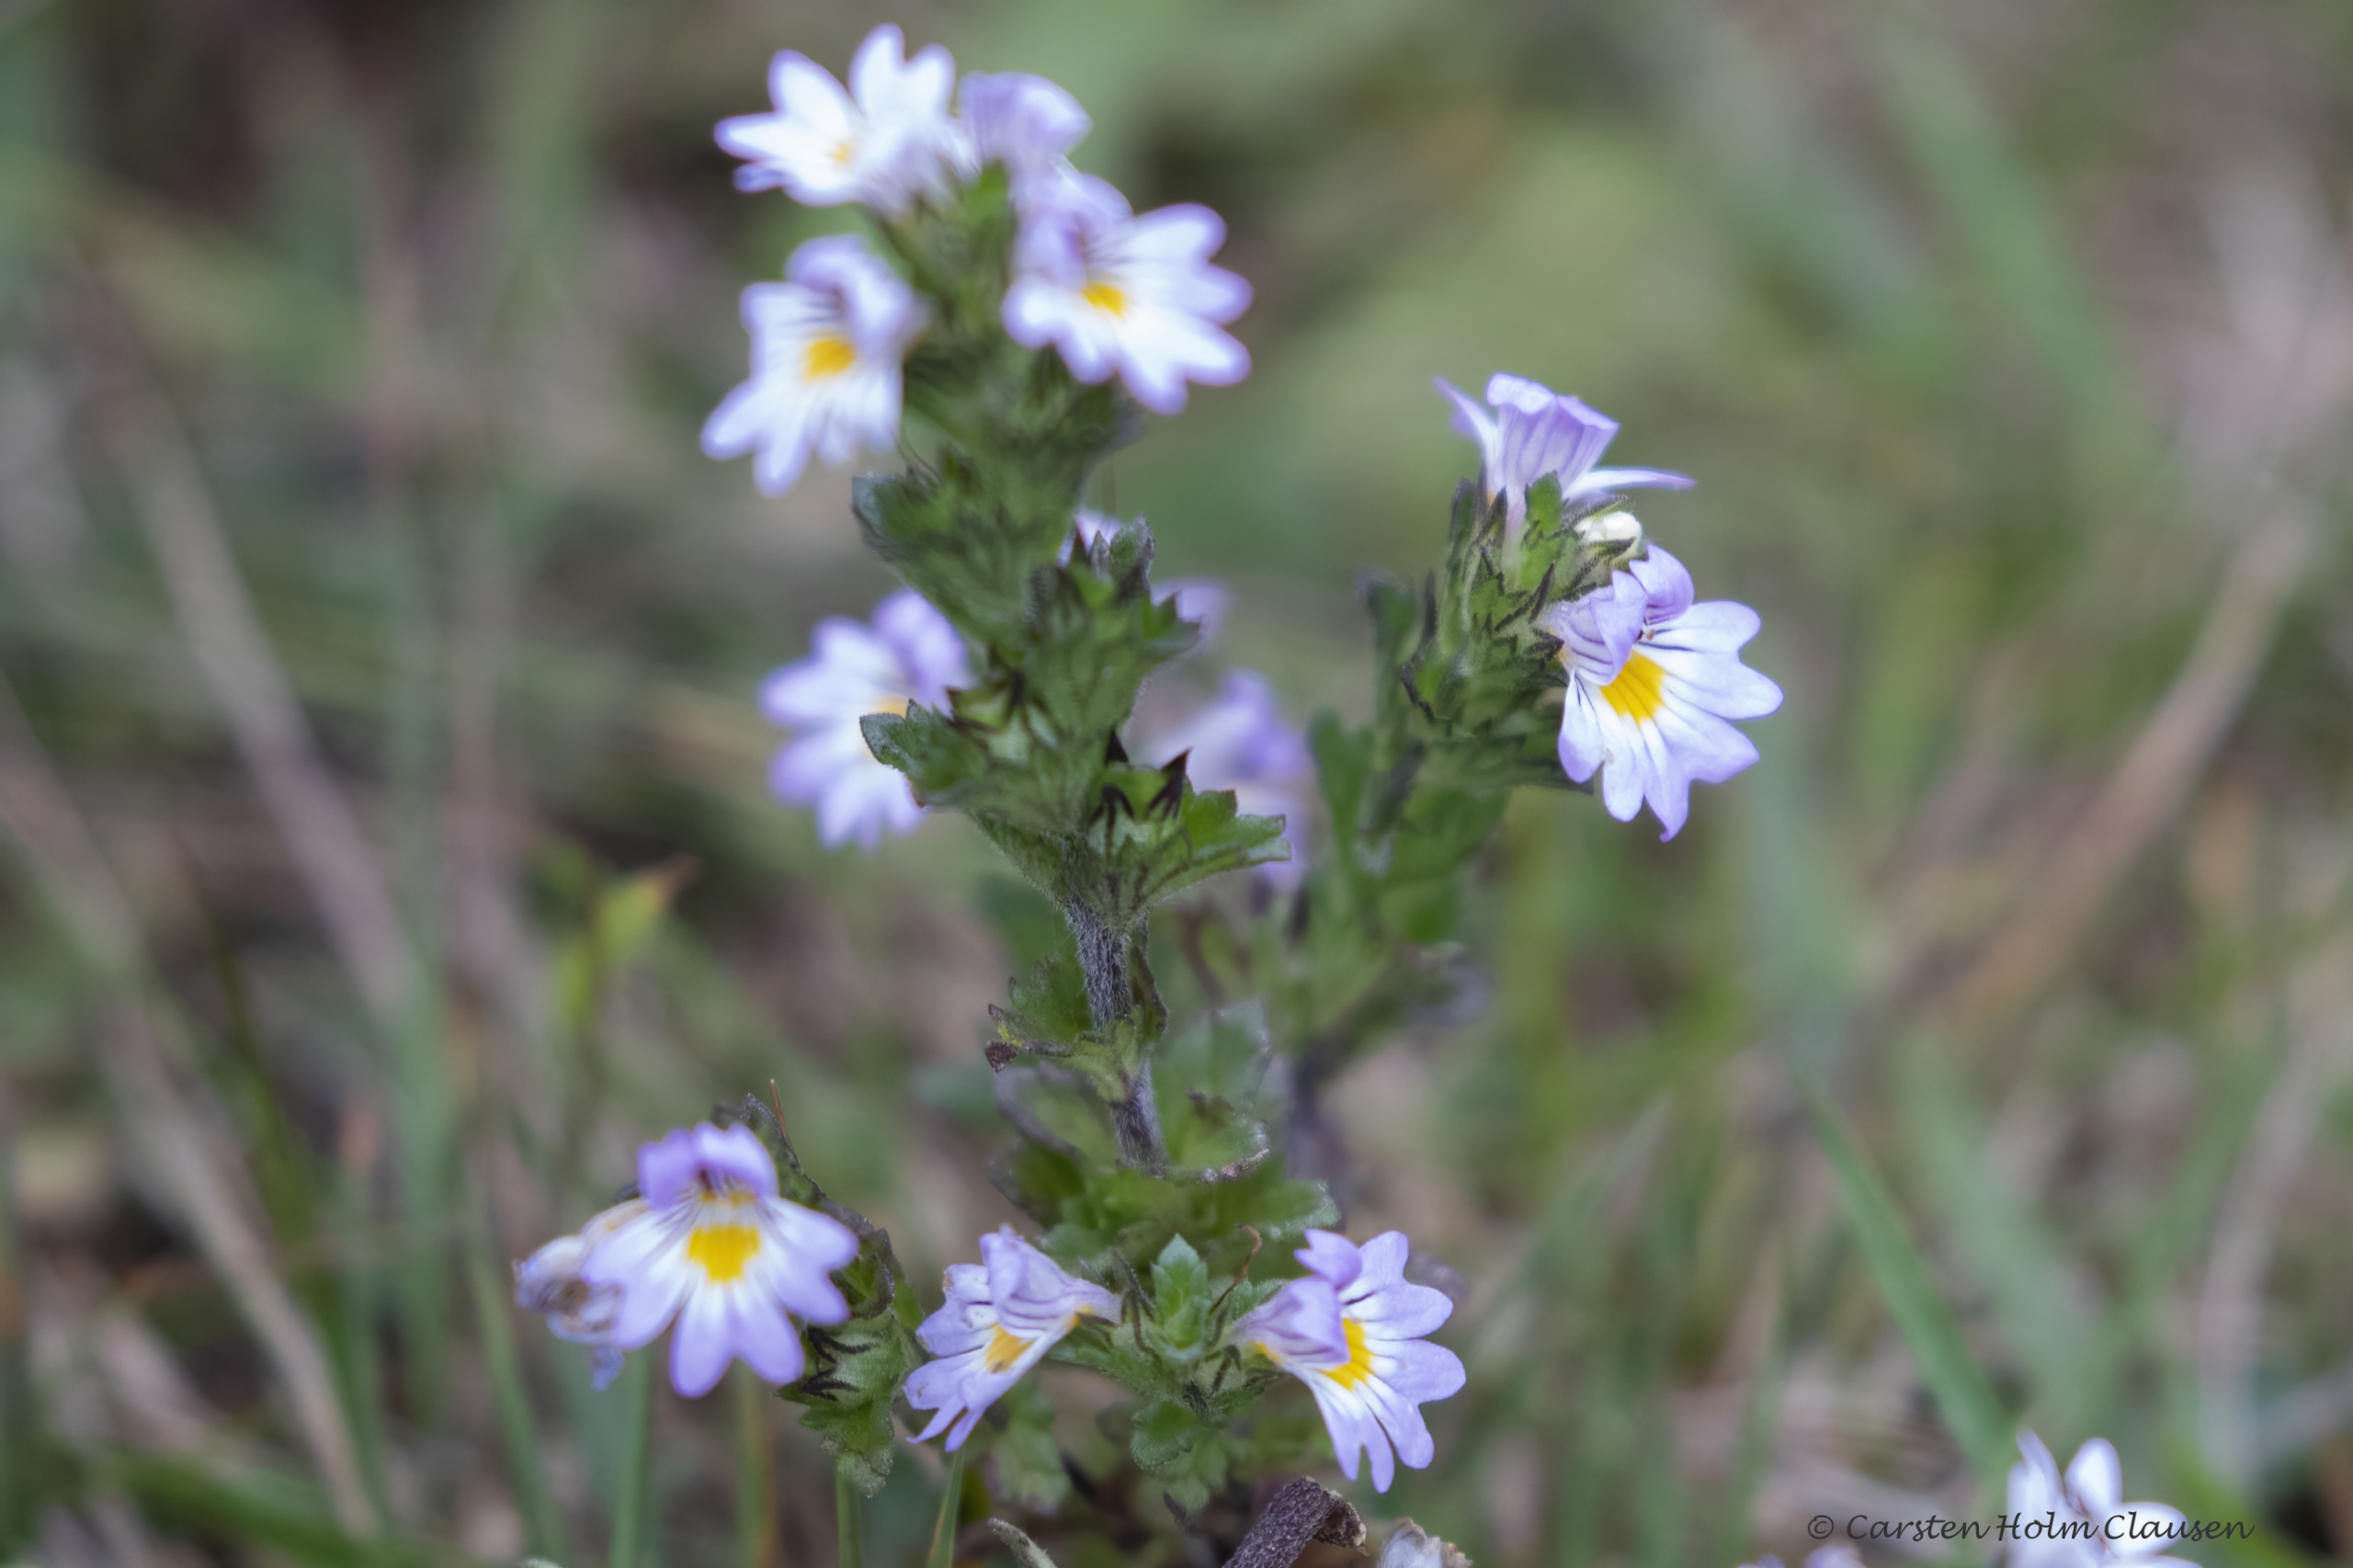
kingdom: Plantae
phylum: Tracheophyta
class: Magnoliopsida
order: Lamiales
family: Orobanchaceae
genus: Euphrasia
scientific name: Euphrasia nemorosa
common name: Kort øjentrøst
